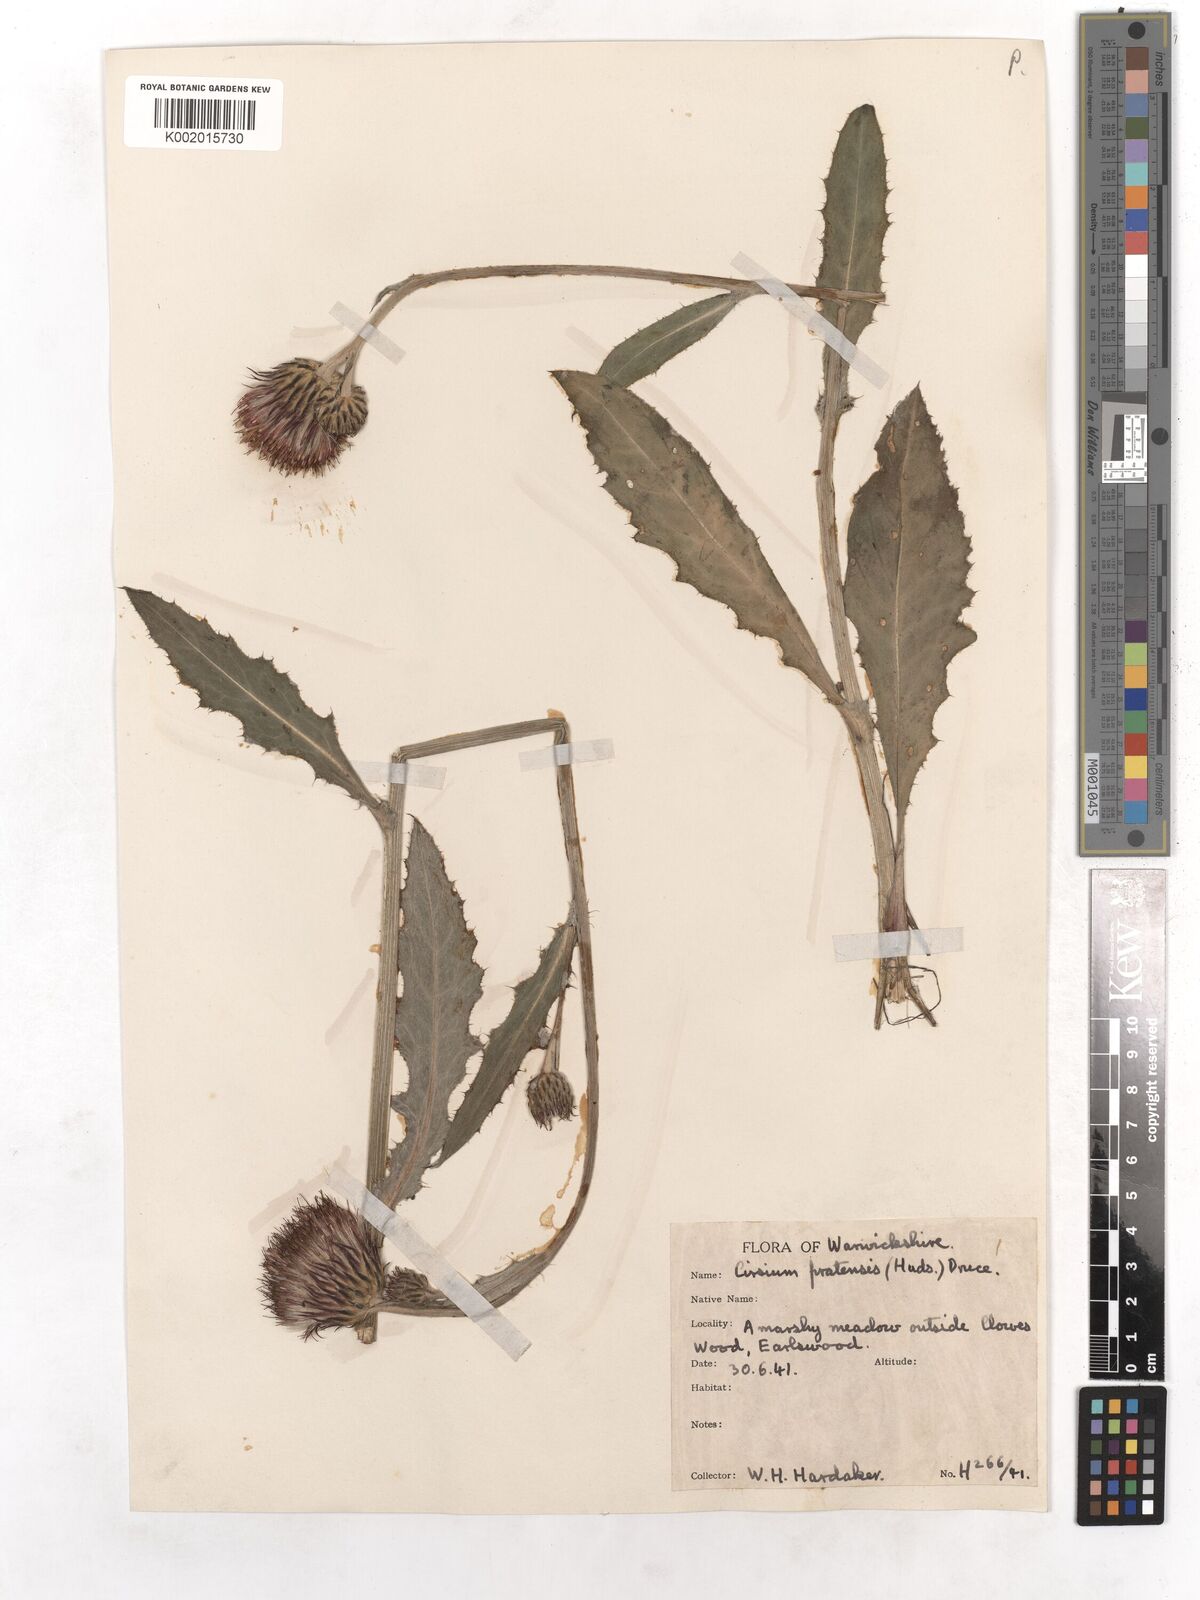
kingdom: Plantae
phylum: Tracheophyta
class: Magnoliopsida
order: Asterales
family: Asteraceae
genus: Cirsium
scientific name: Cirsium dissectum
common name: Meadow thistle
